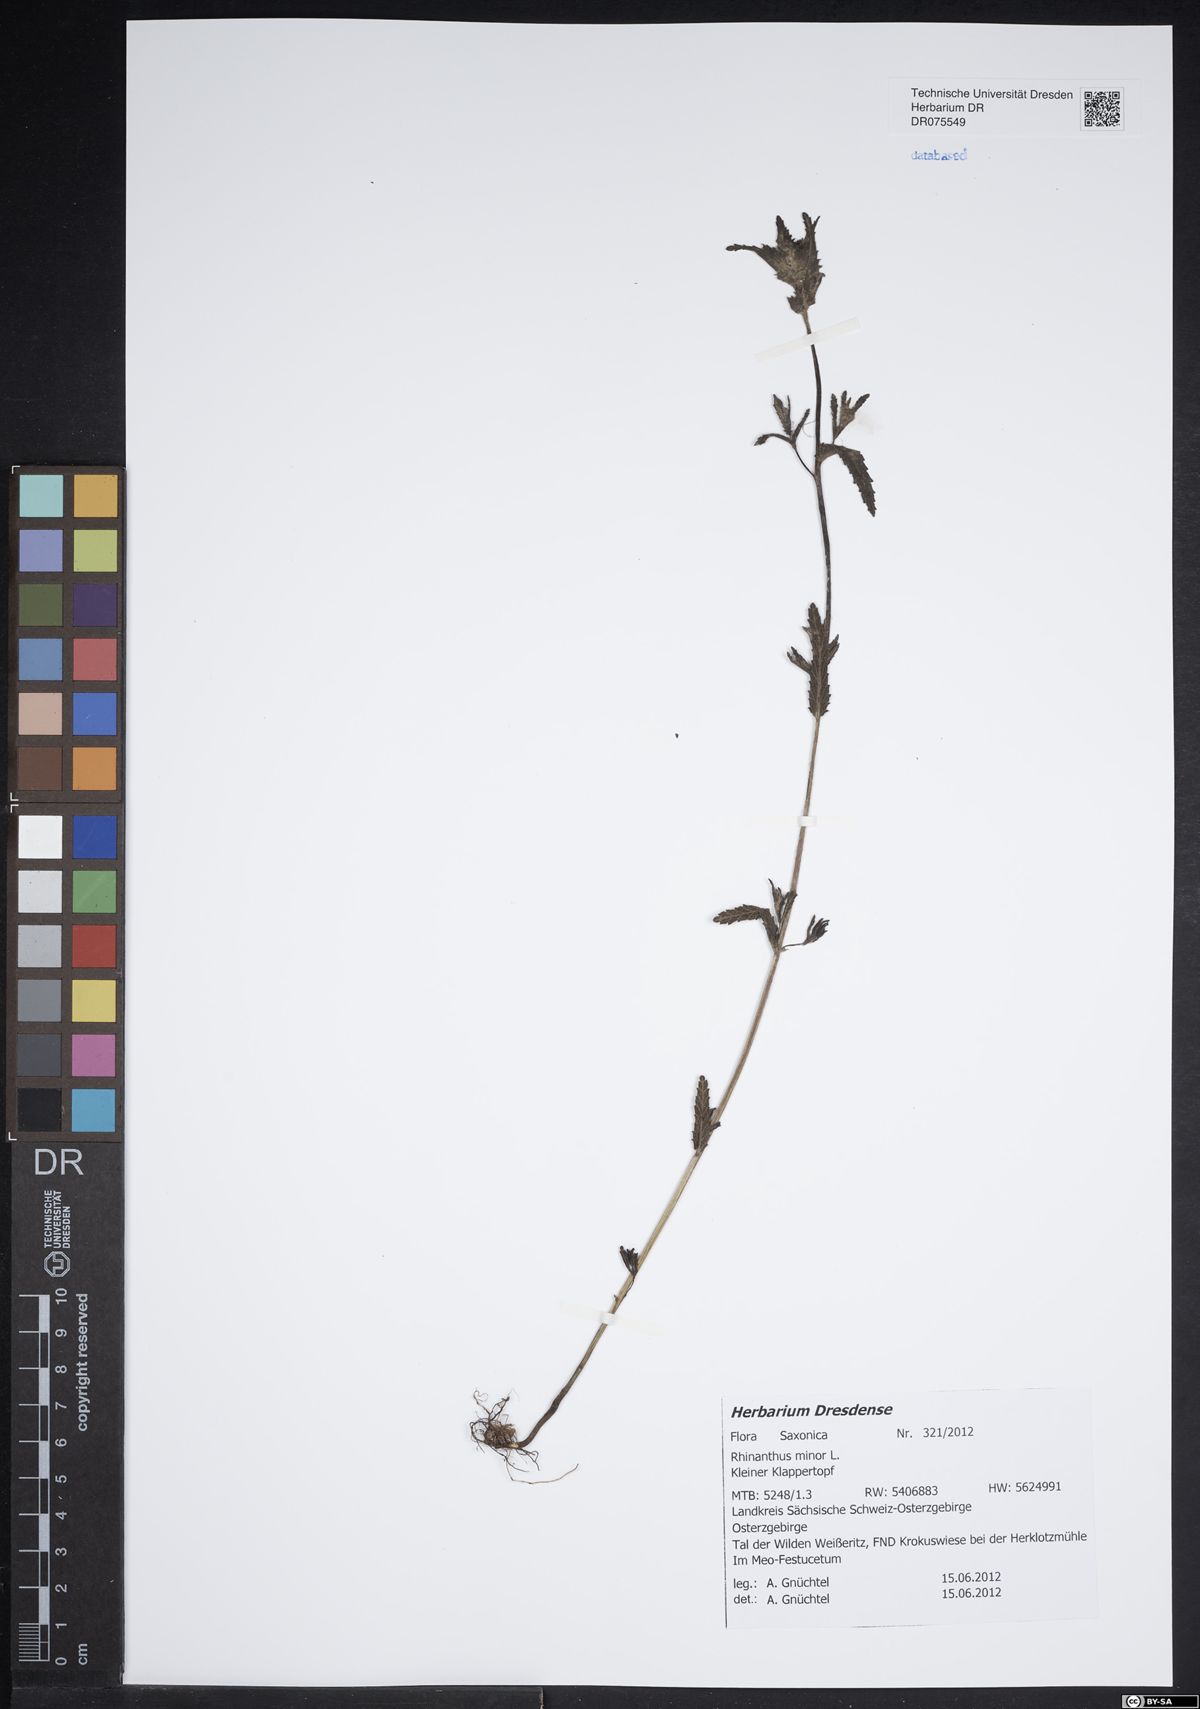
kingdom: Plantae
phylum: Tracheophyta
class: Magnoliopsida
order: Lamiales
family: Orobanchaceae
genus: Rhinanthus
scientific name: Rhinanthus minor
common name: Yellow-rattle
